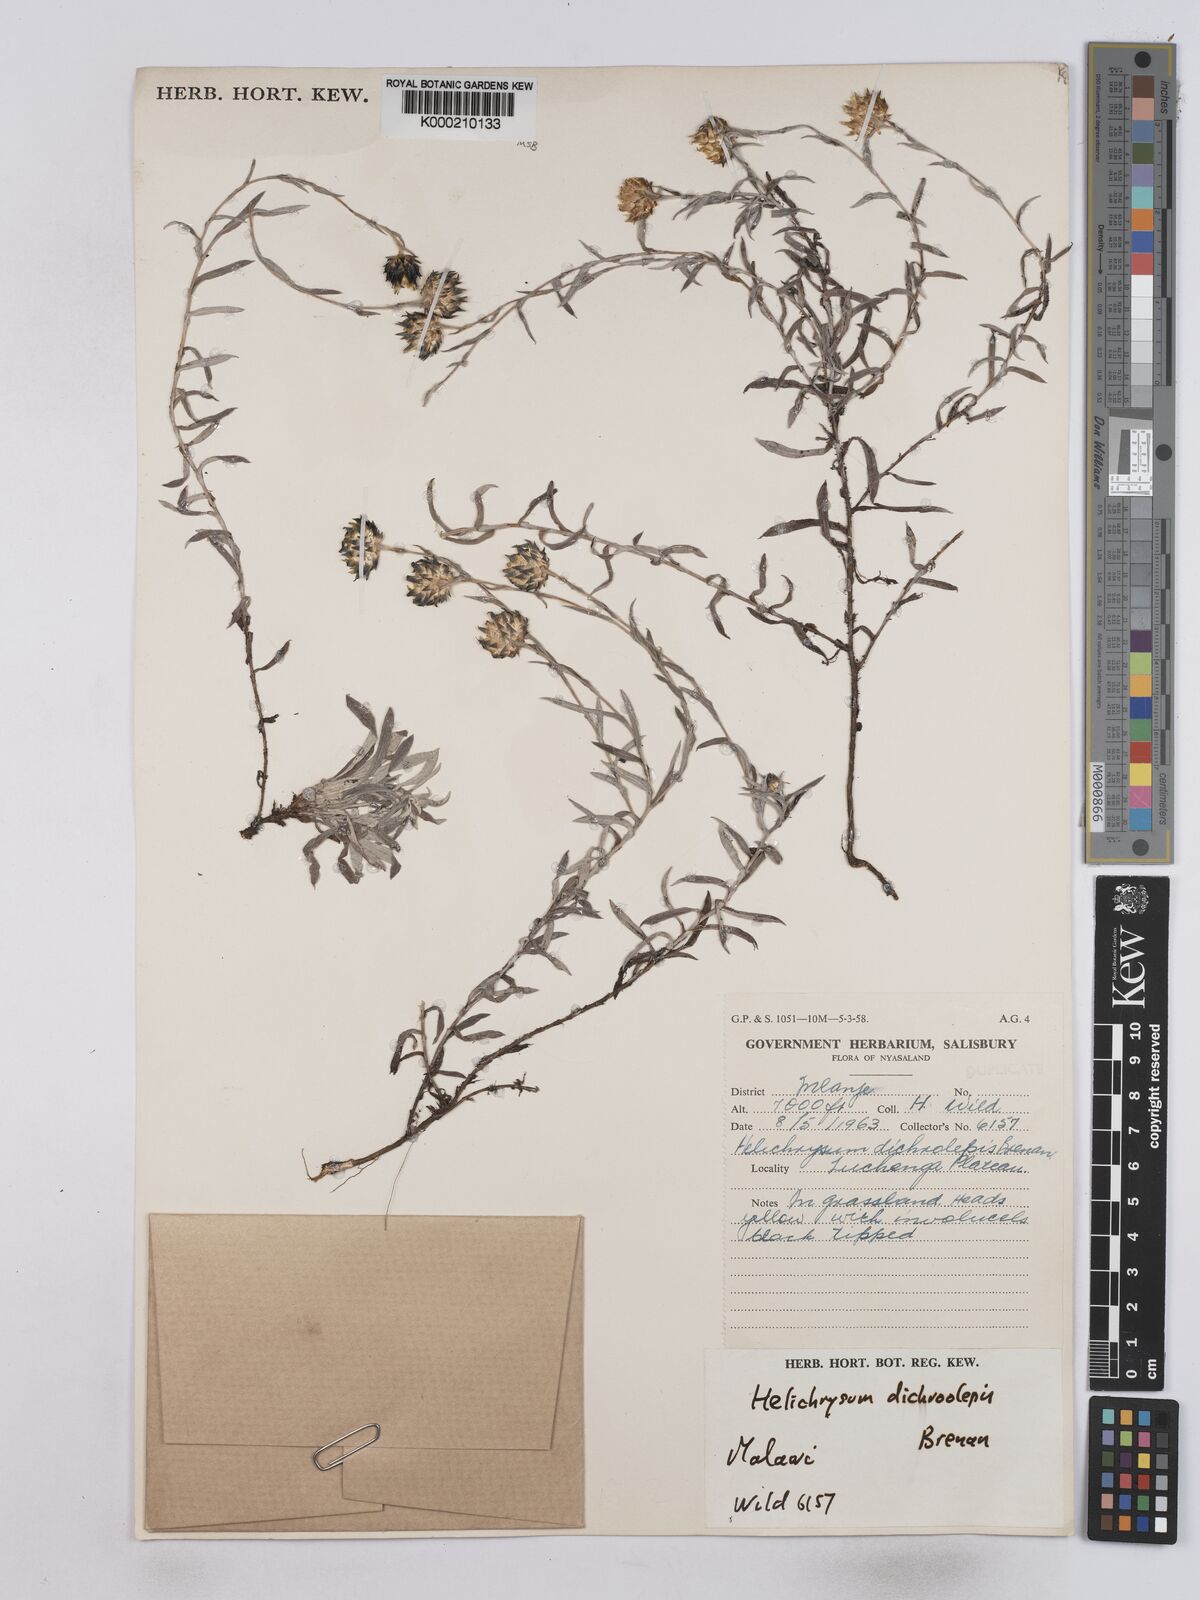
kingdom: Plantae
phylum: Tracheophyta
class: Magnoliopsida
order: Asterales
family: Asteraceae
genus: Helichrysum
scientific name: Helichrysum
